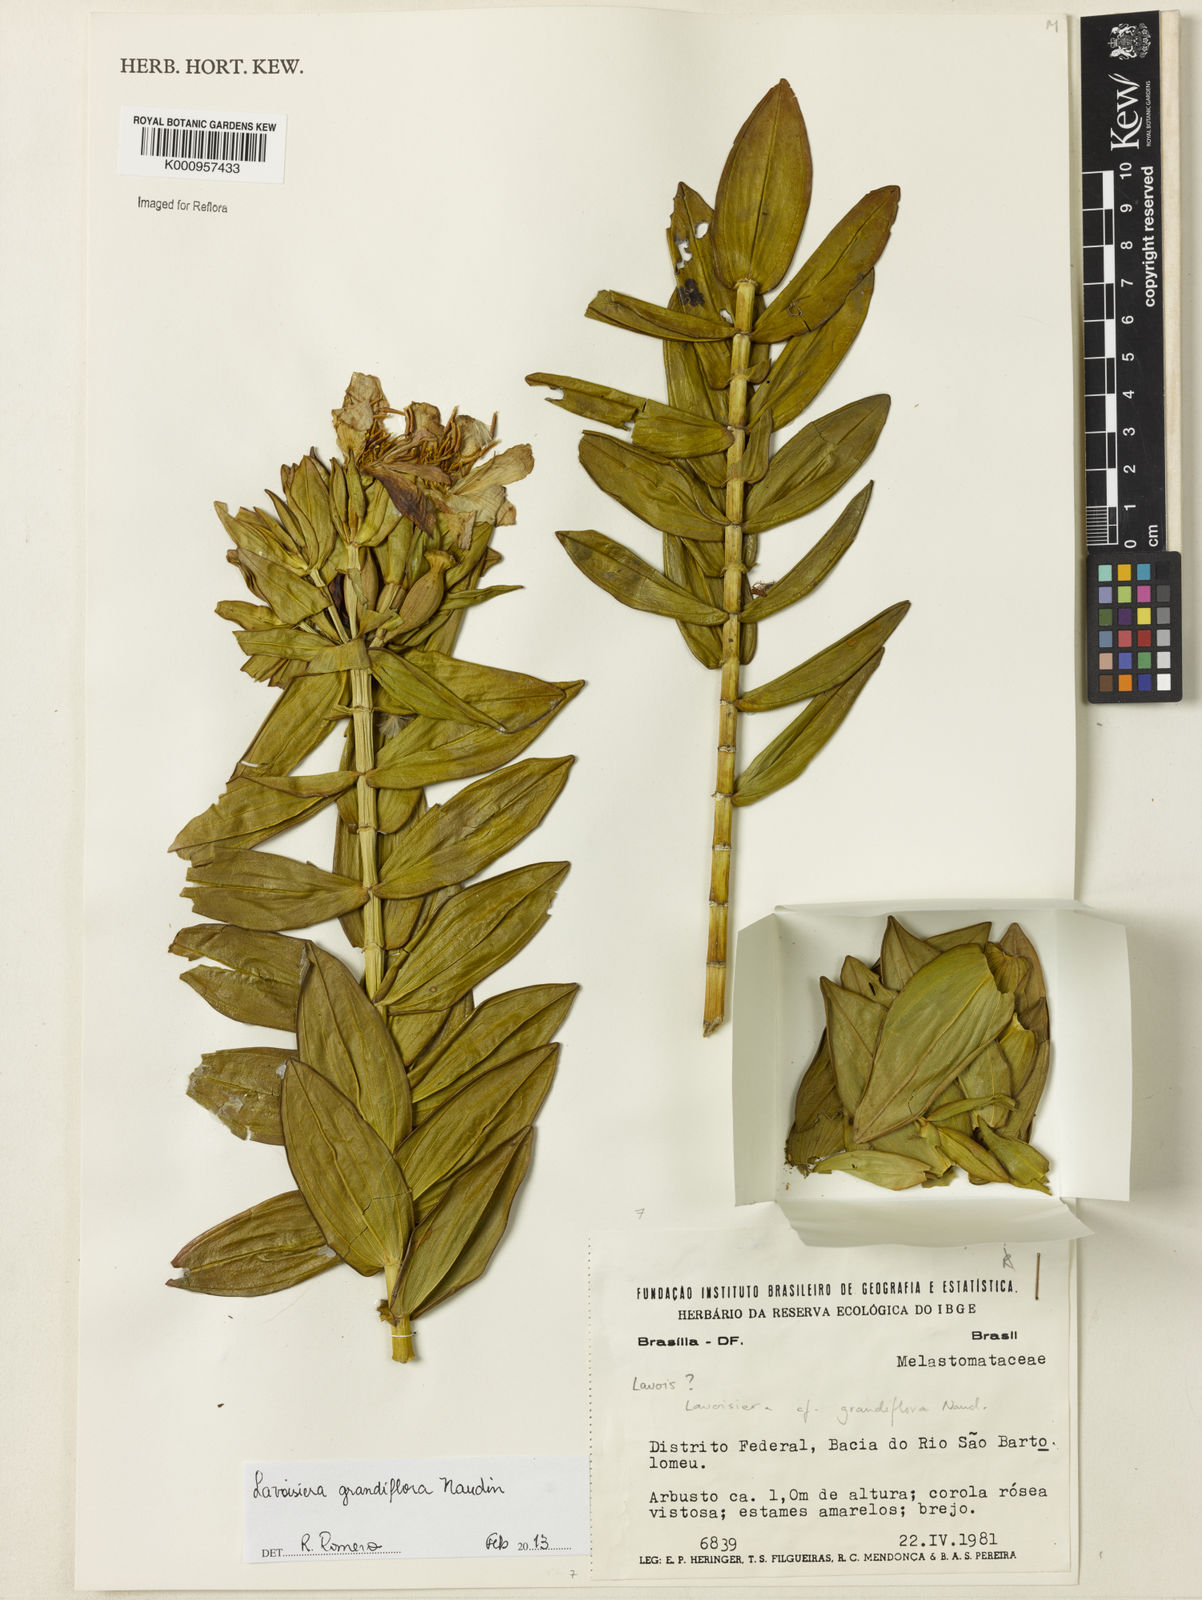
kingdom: Plantae
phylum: Tracheophyta
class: Magnoliopsida
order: Myrtales
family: Melastomataceae
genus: Microlicia
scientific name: Microlicia macrantha
